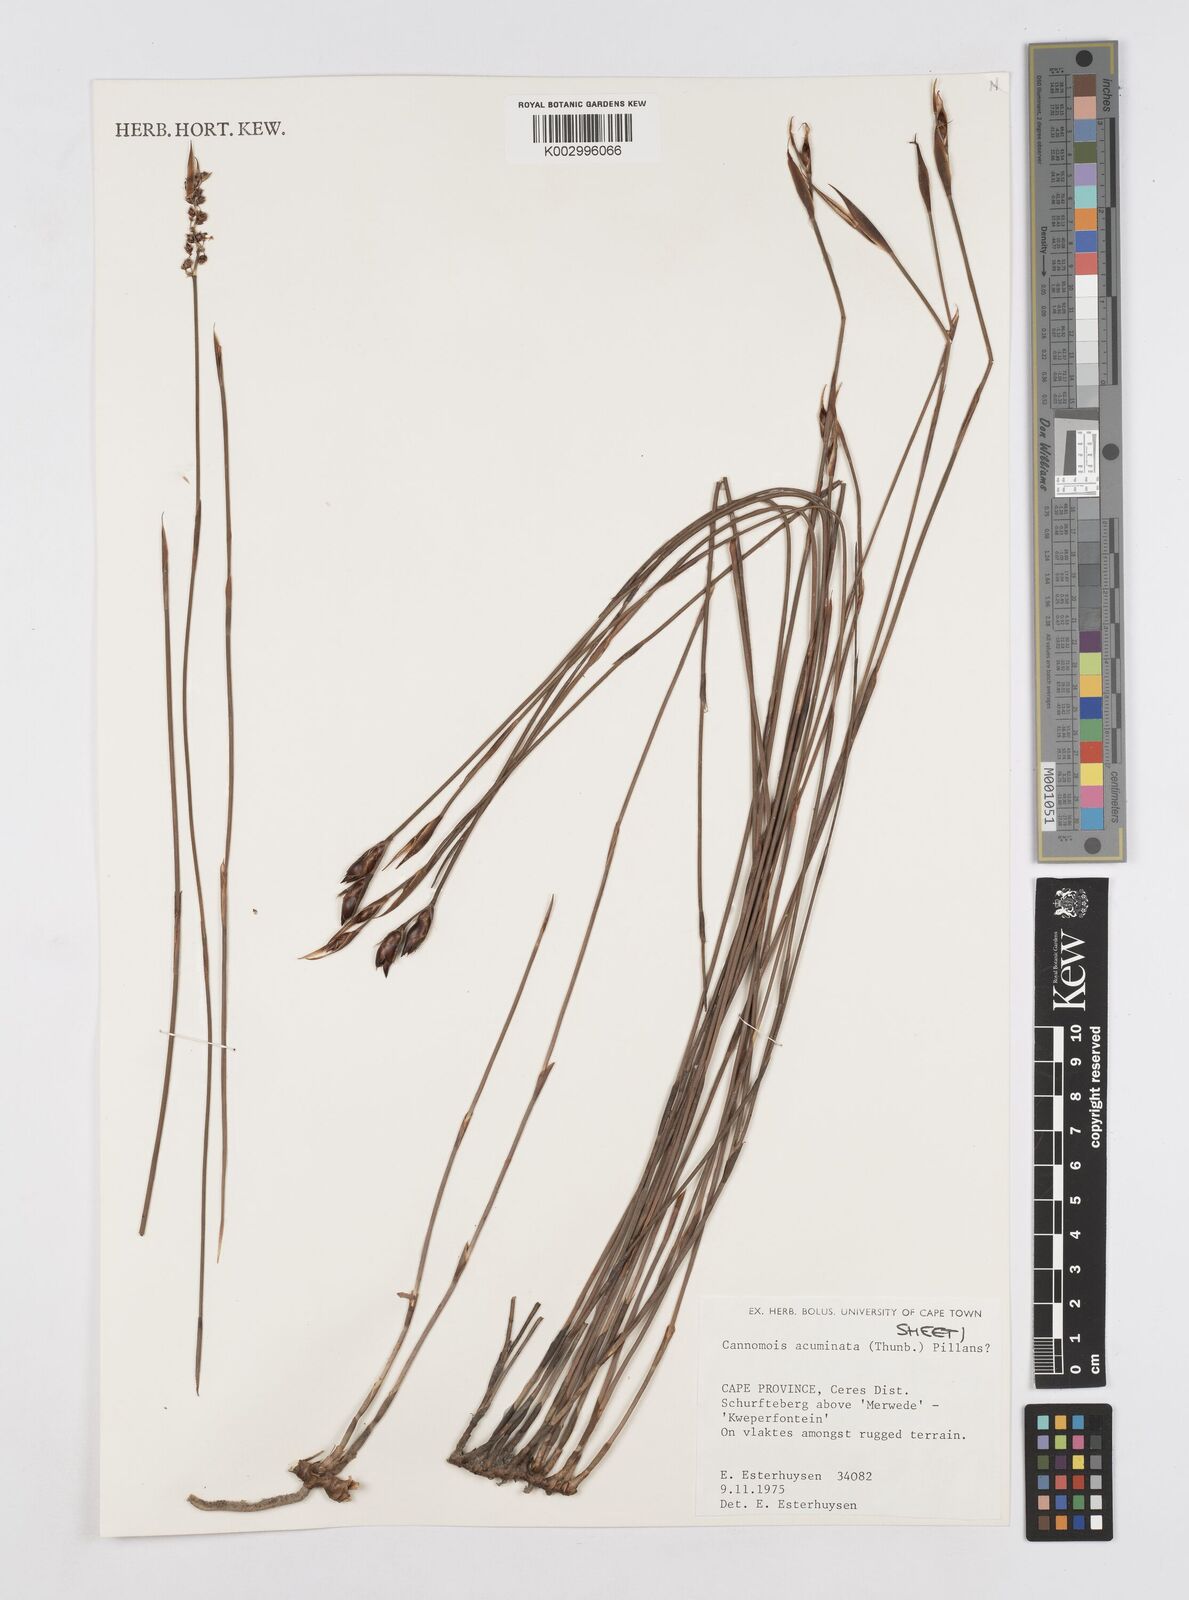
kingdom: Plantae
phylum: Tracheophyta
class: Liliopsida
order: Poales
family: Restionaceae
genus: Cannomois
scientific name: Cannomois parviflora
